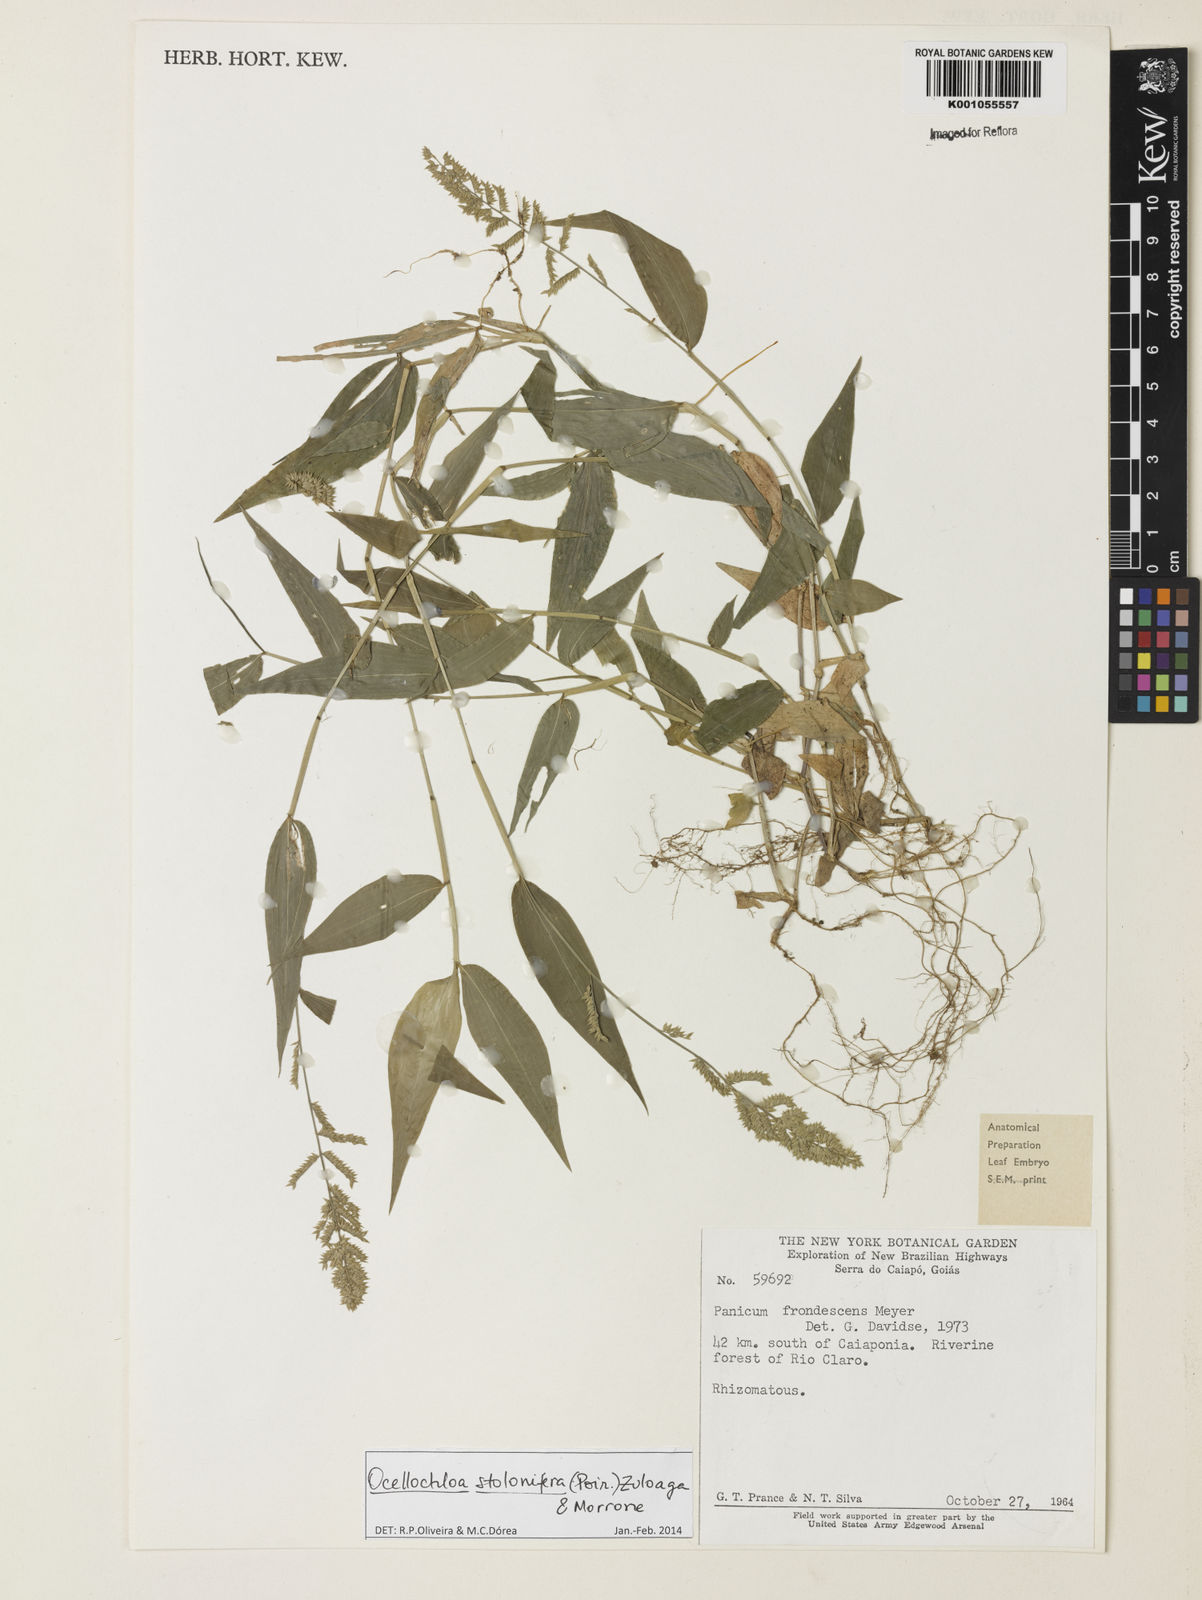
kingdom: Plantae
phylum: Tracheophyta
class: Liliopsida
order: Poales
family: Poaceae
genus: Ocellochloa
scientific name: Ocellochloa stolonifera
